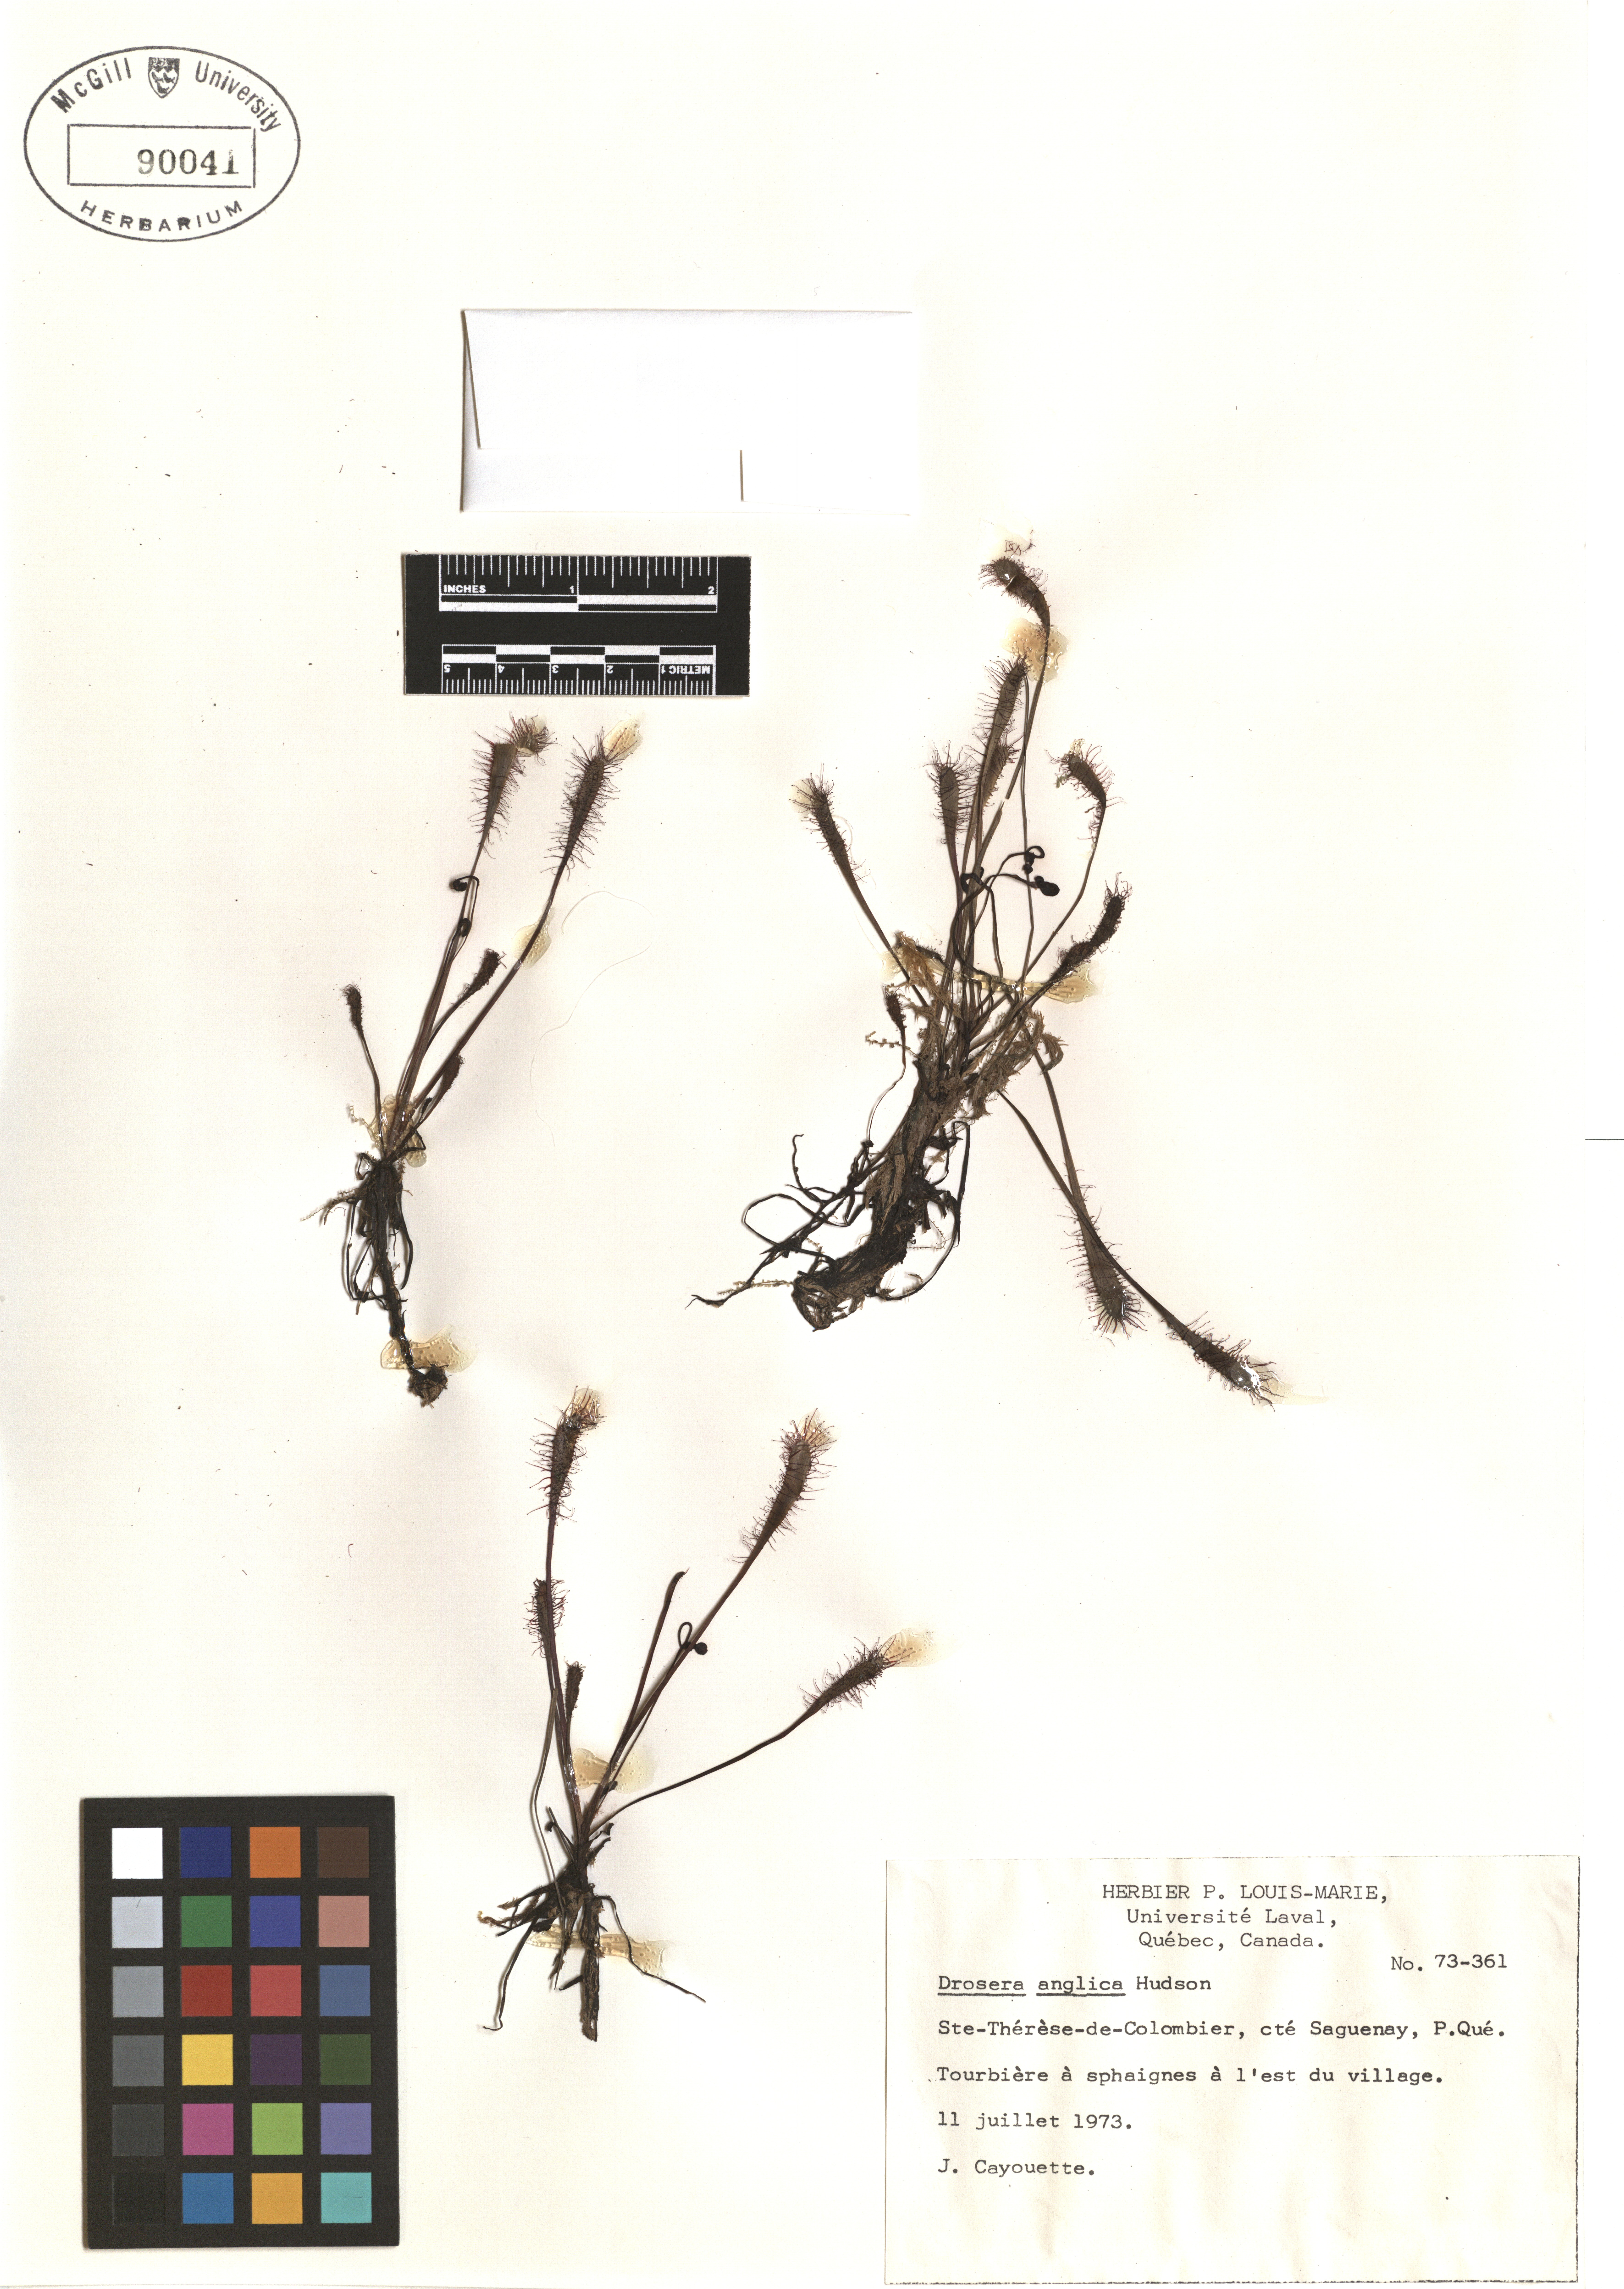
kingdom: Plantae
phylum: Tracheophyta
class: Magnoliopsida
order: Caryophyllales
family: Droseraceae
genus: Drosera
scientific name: Drosera anglica
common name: Great sundew
